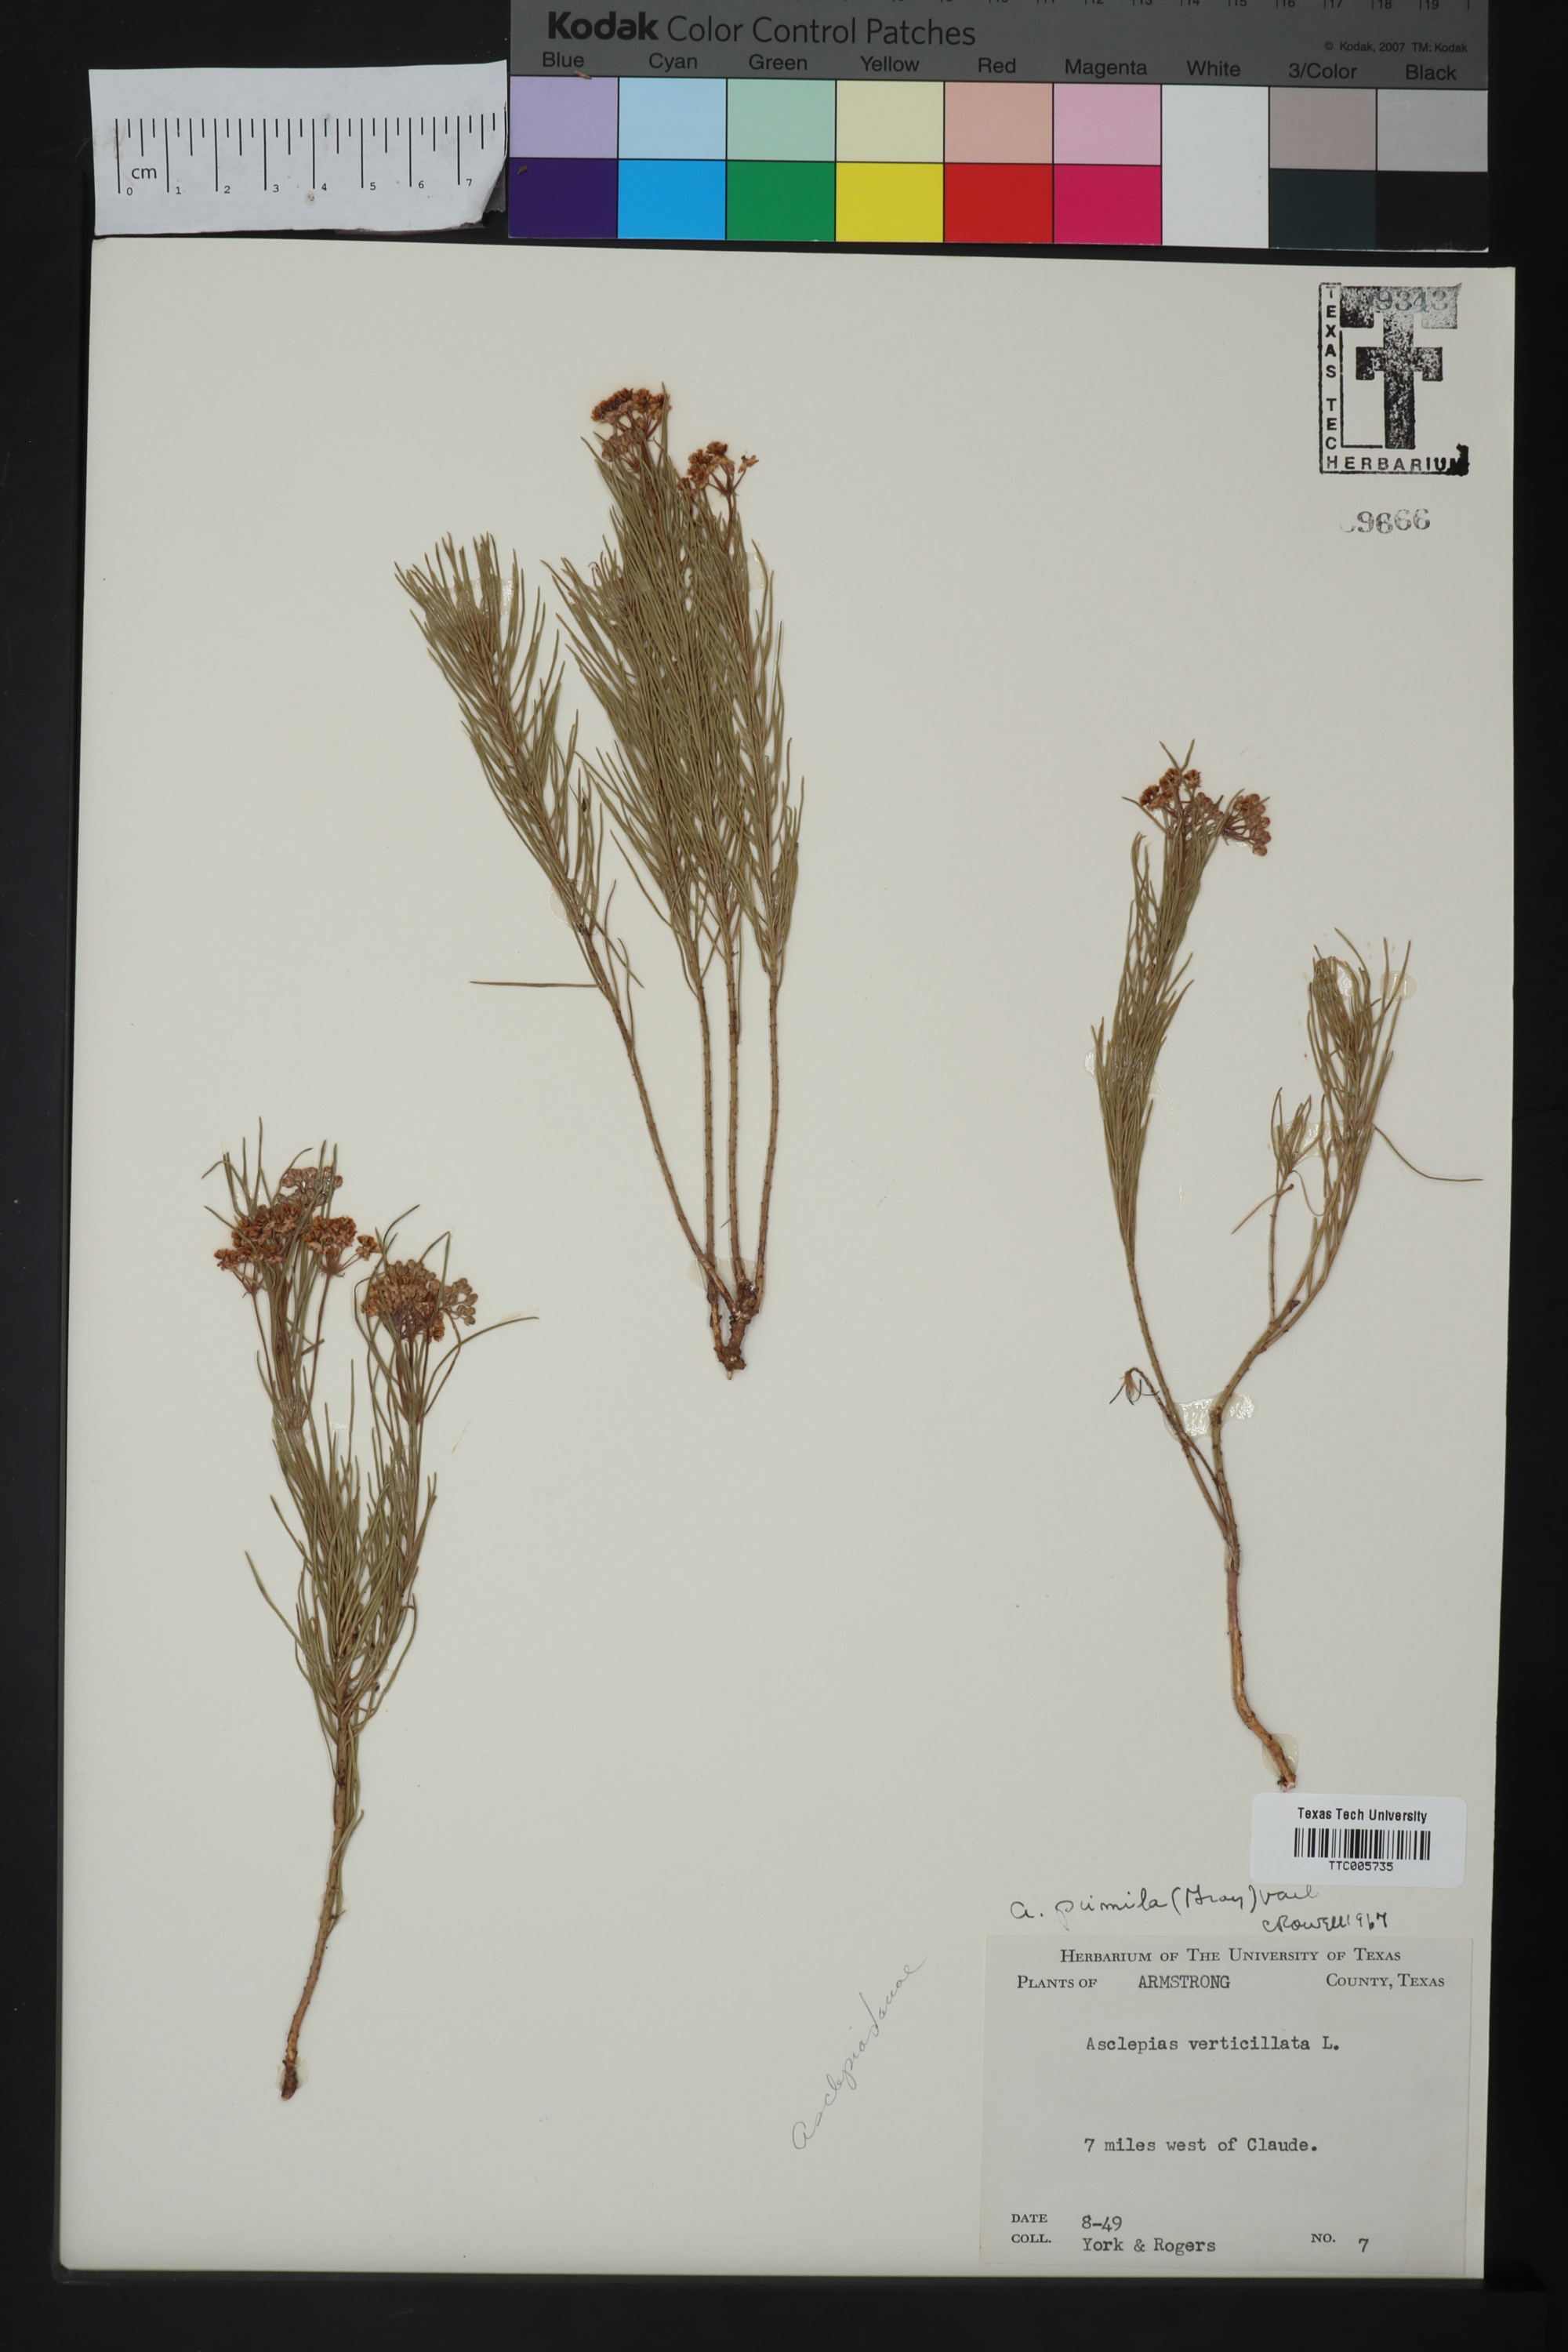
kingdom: Plantae
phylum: Tracheophyta
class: Magnoliopsida
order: Gentianales
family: Apocynaceae
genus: Asclepias
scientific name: Asclepias pumila
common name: Dwarf milkweed
